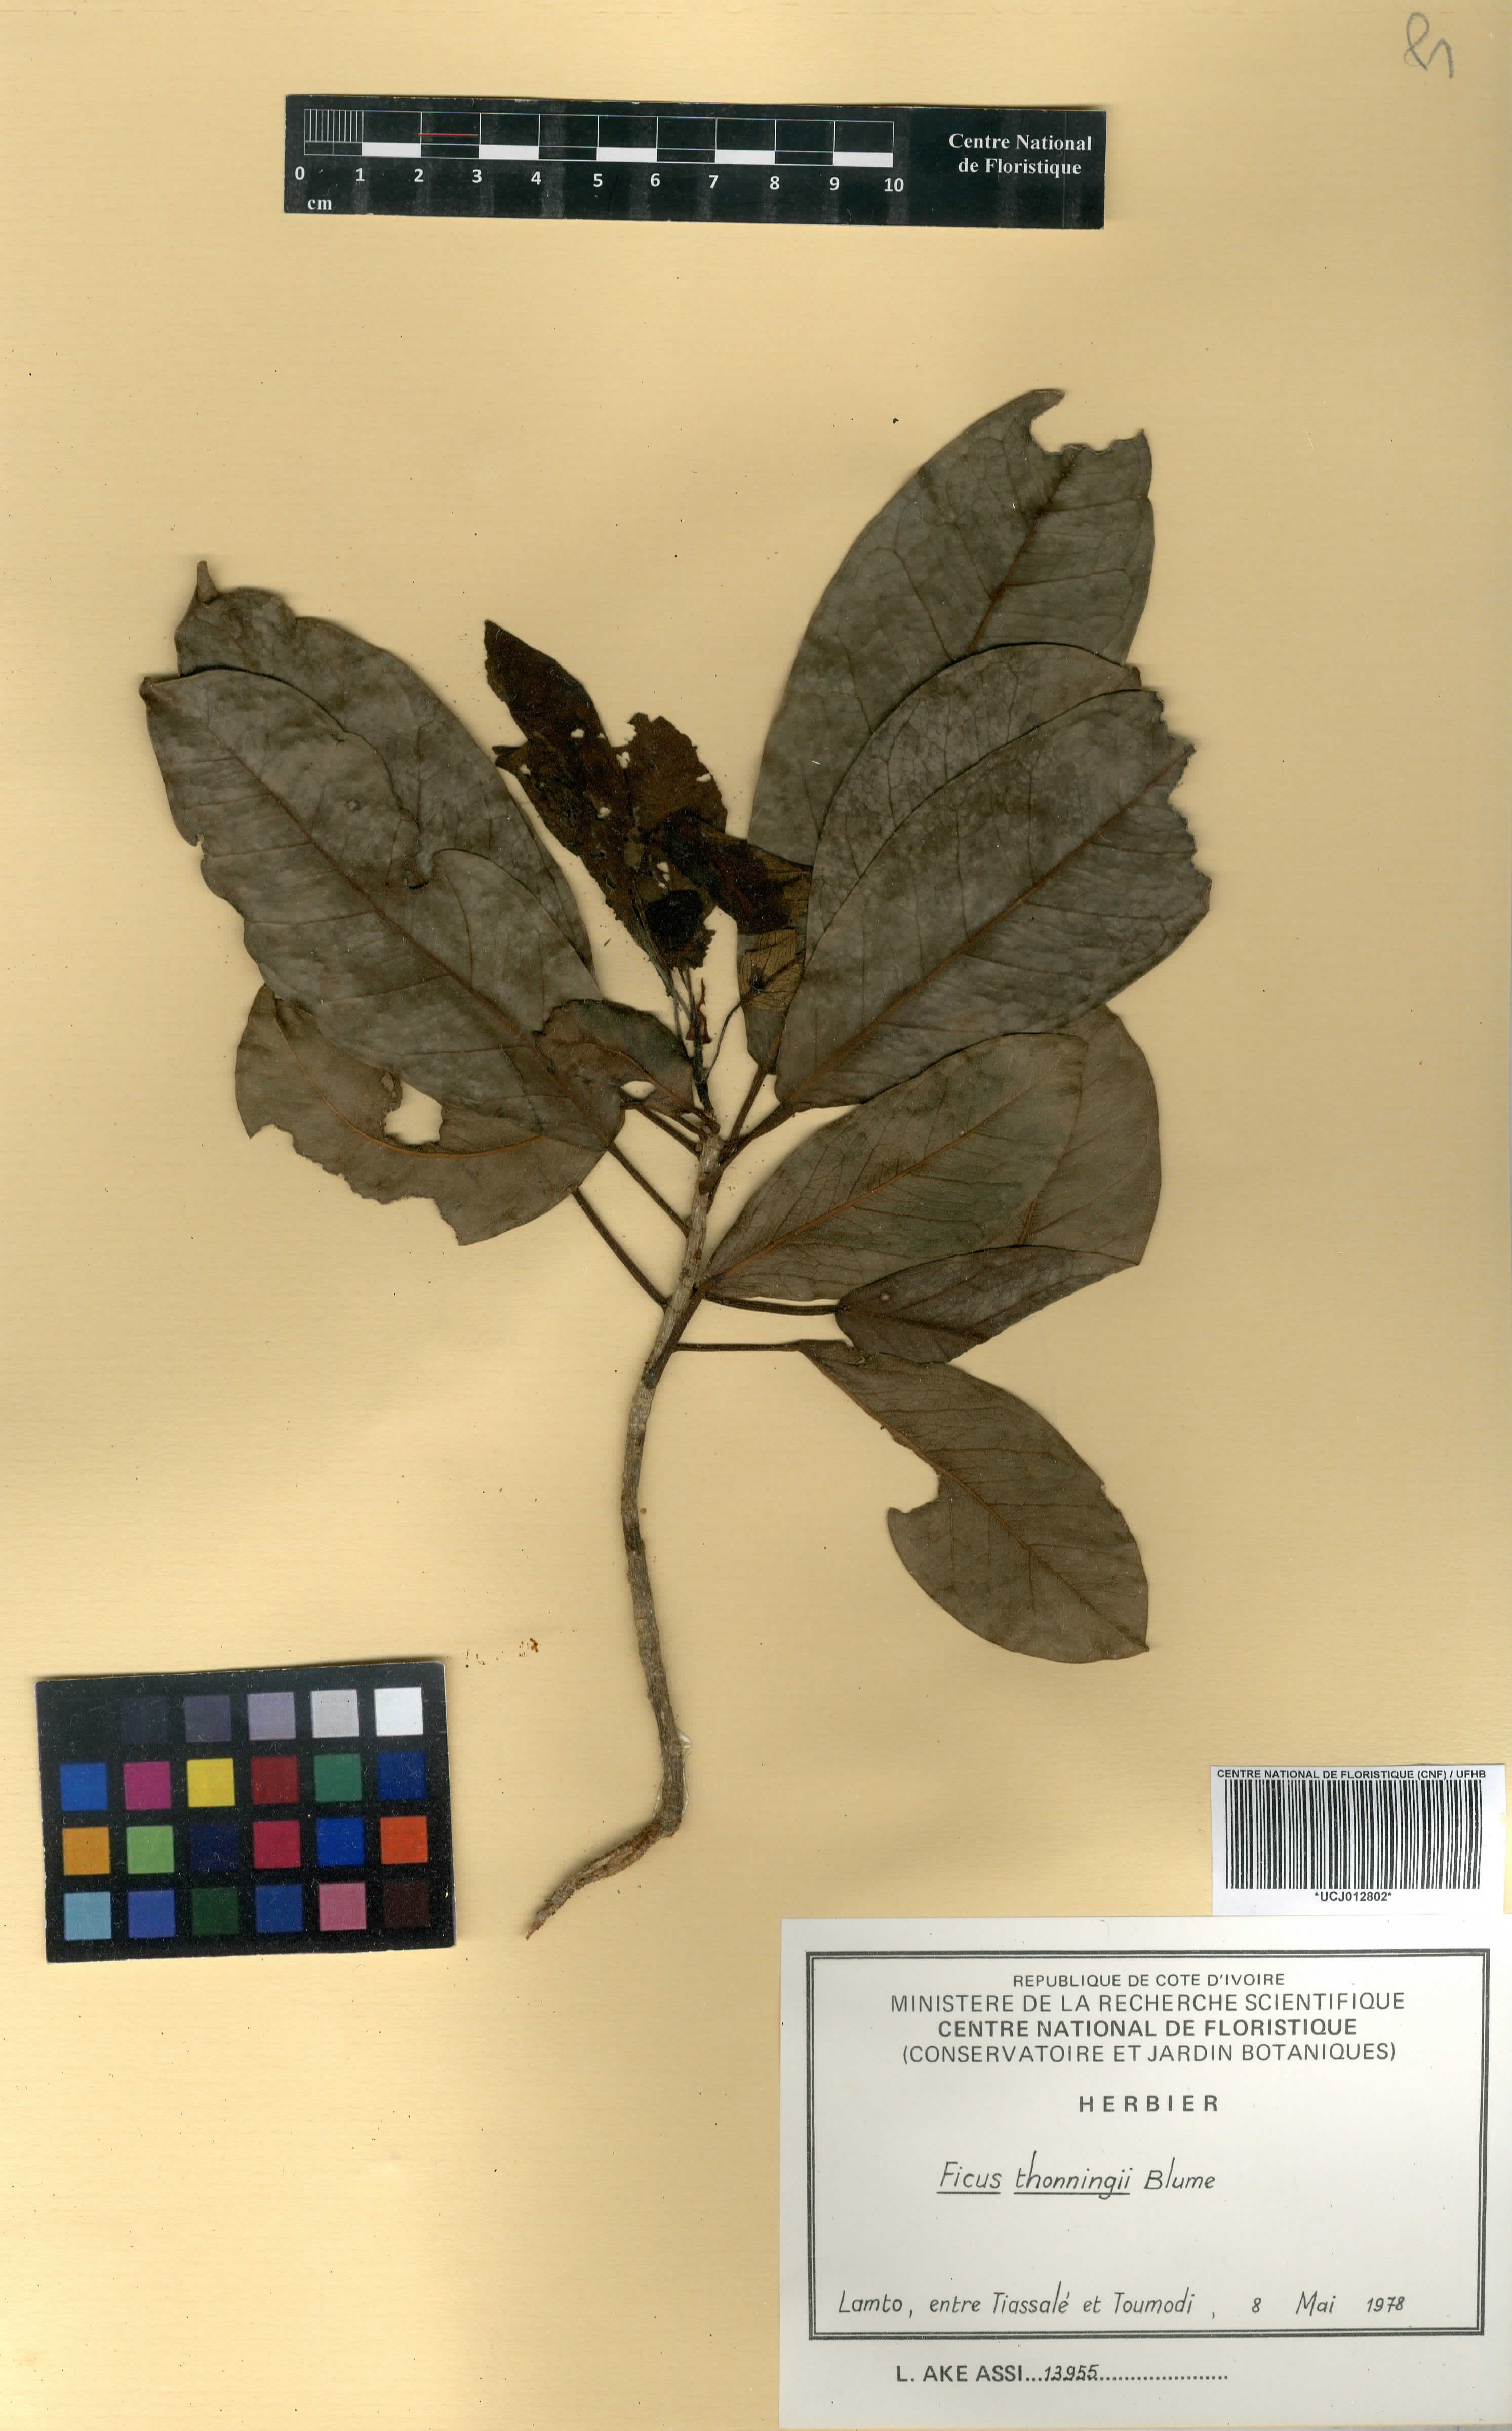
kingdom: Plantae
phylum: Tracheophyta
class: Magnoliopsida
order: Rosales
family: Moraceae
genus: Ficus
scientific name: Ficus thonningii
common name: Fig
